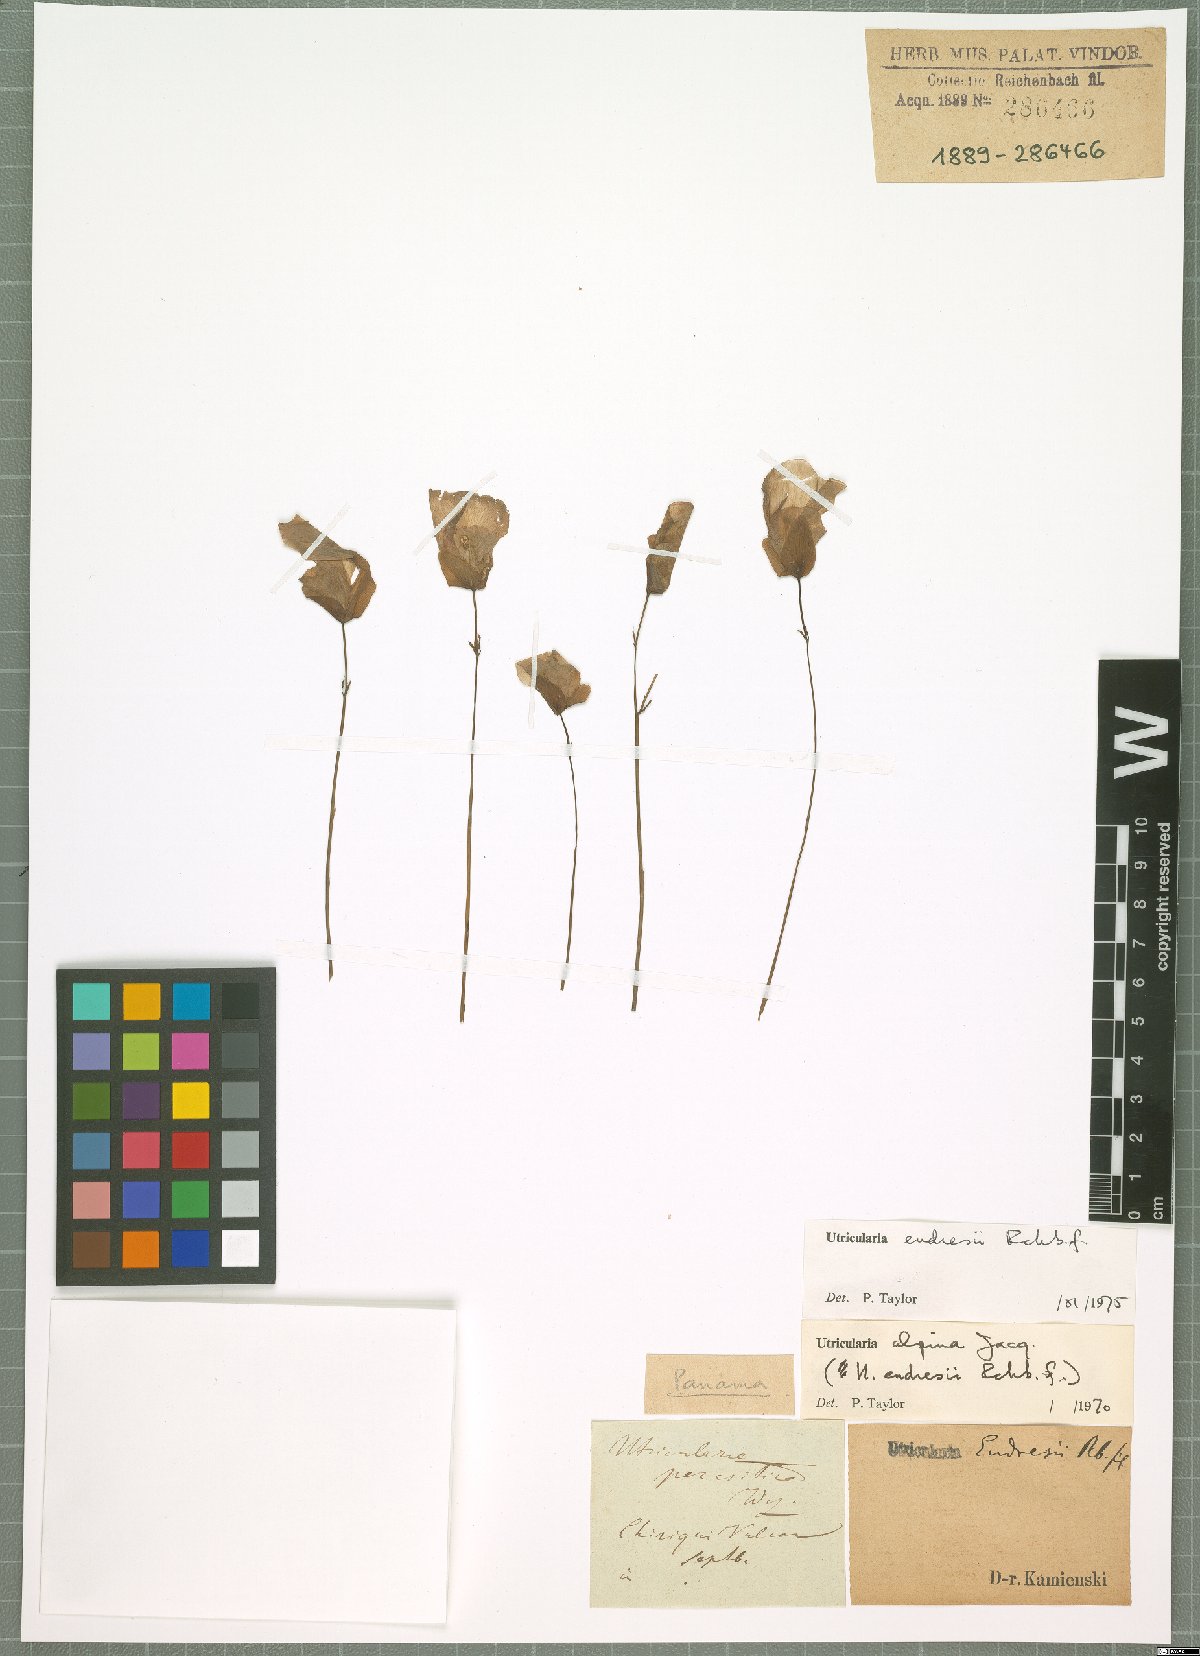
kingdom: Plantae
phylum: Tracheophyta
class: Magnoliopsida
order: Lamiales
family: Lentibulariaceae
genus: Utricularia
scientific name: Utricularia endresii
